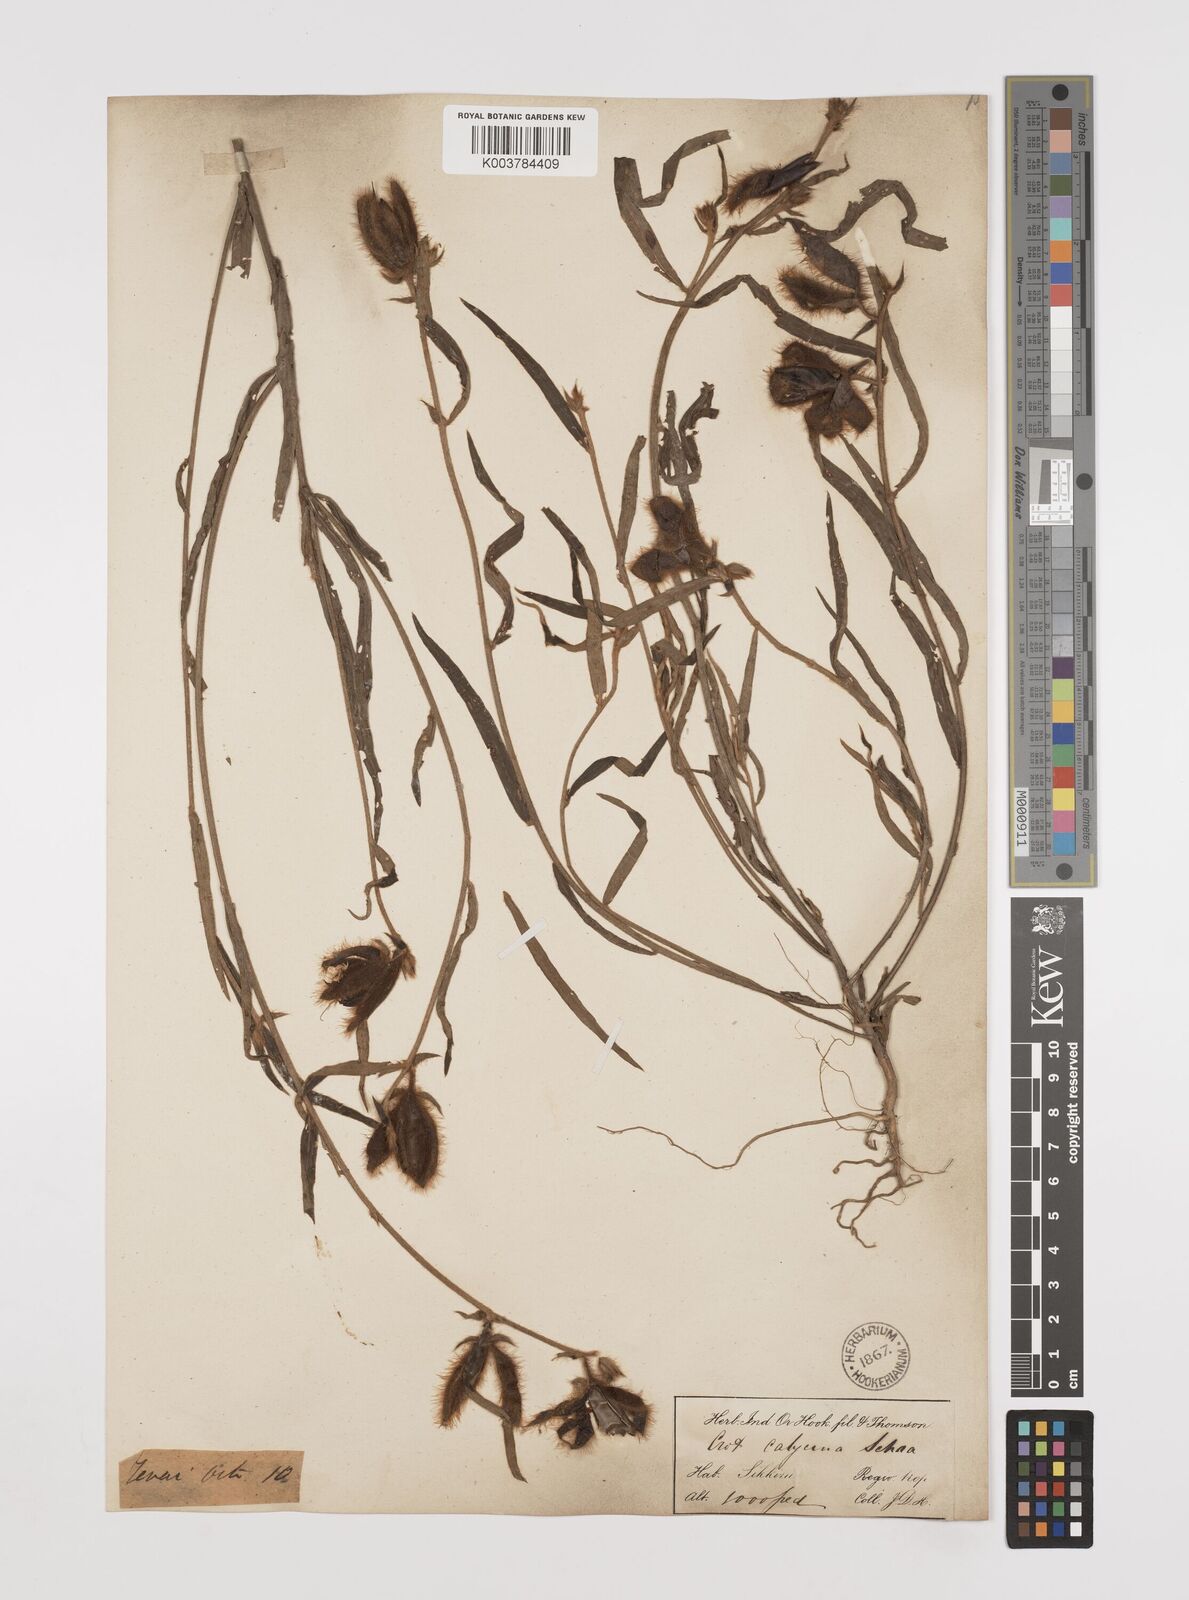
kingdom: Plantae
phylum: Tracheophyta
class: Magnoliopsida
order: Fabales
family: Fabaceae
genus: Crotalaria
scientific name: Crotalaria calycina
